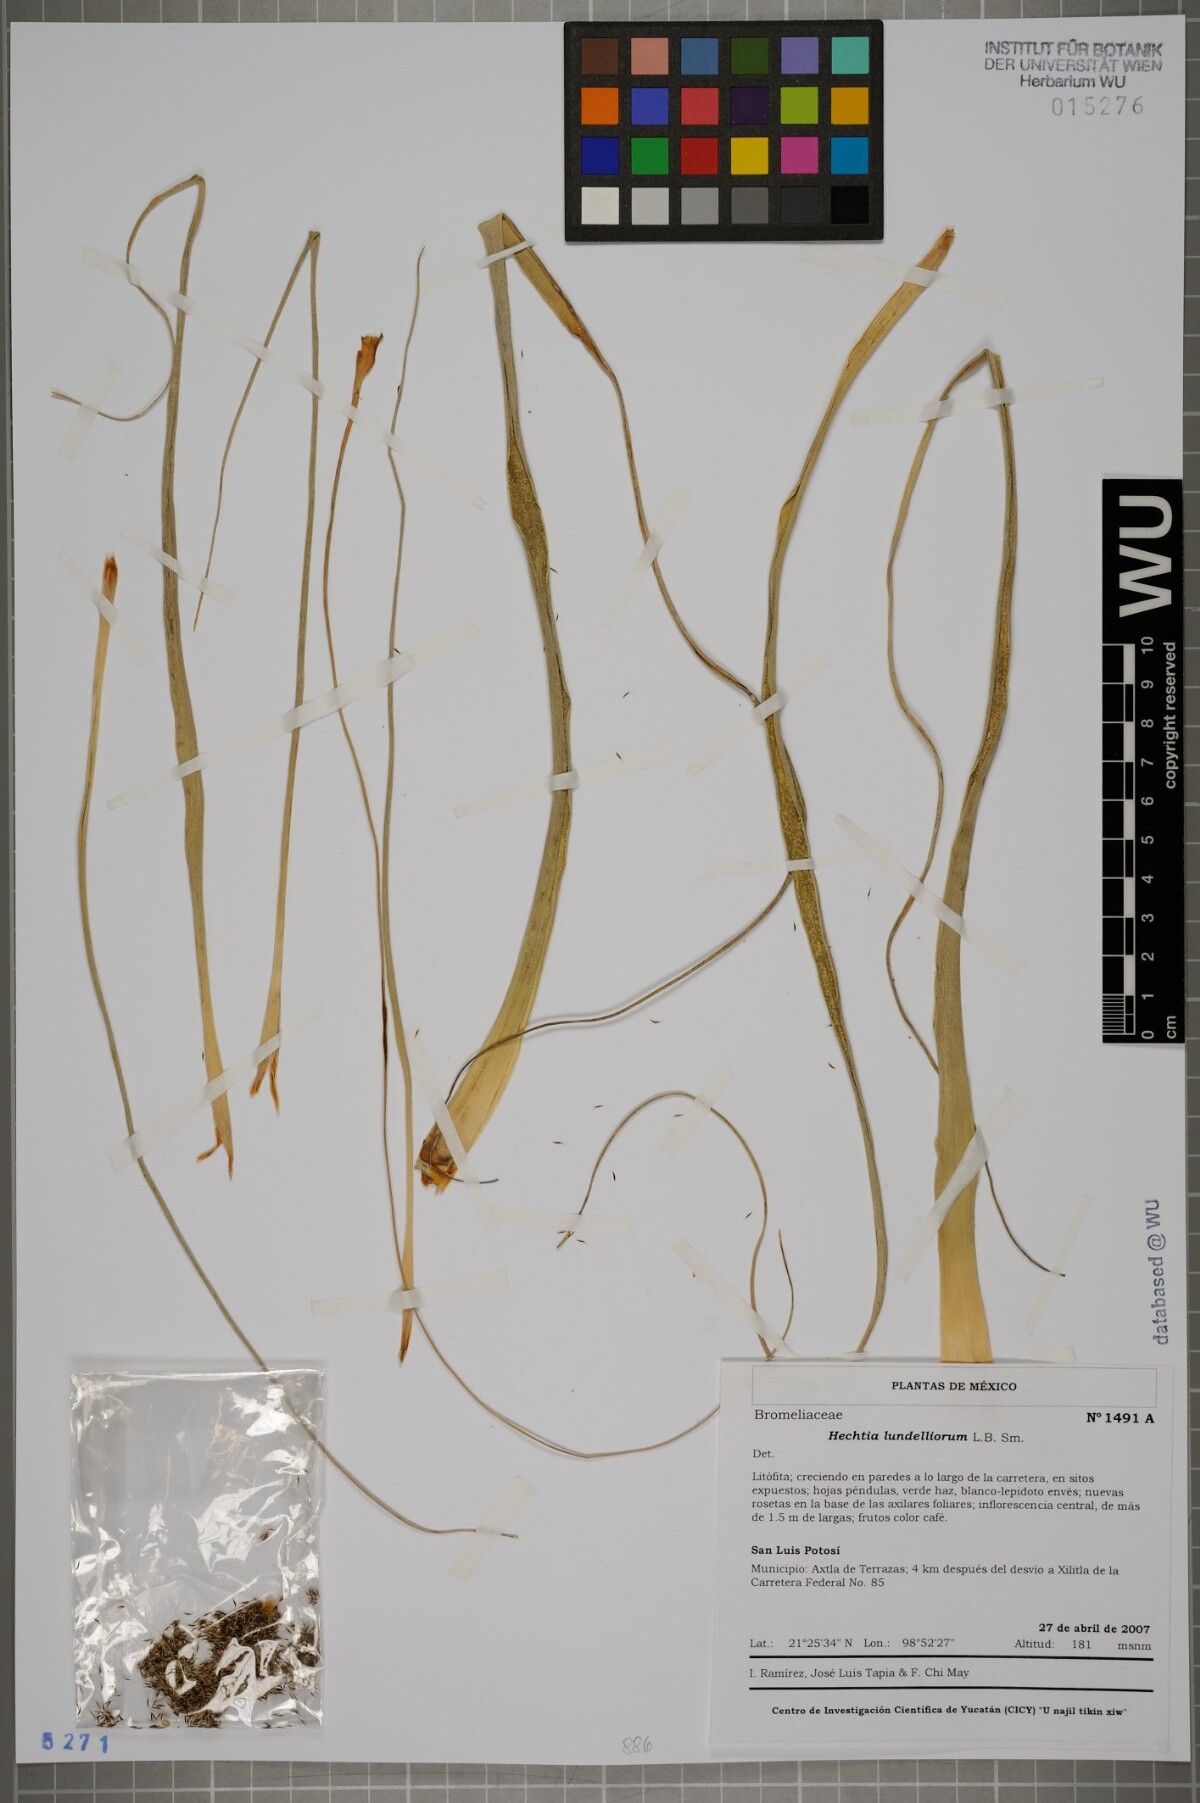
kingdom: Plantae
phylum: Tracheophyta
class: Liliopsida
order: Poales
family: Bromeliaceae
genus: Hechtia
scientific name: Hechtia lundelliorum
